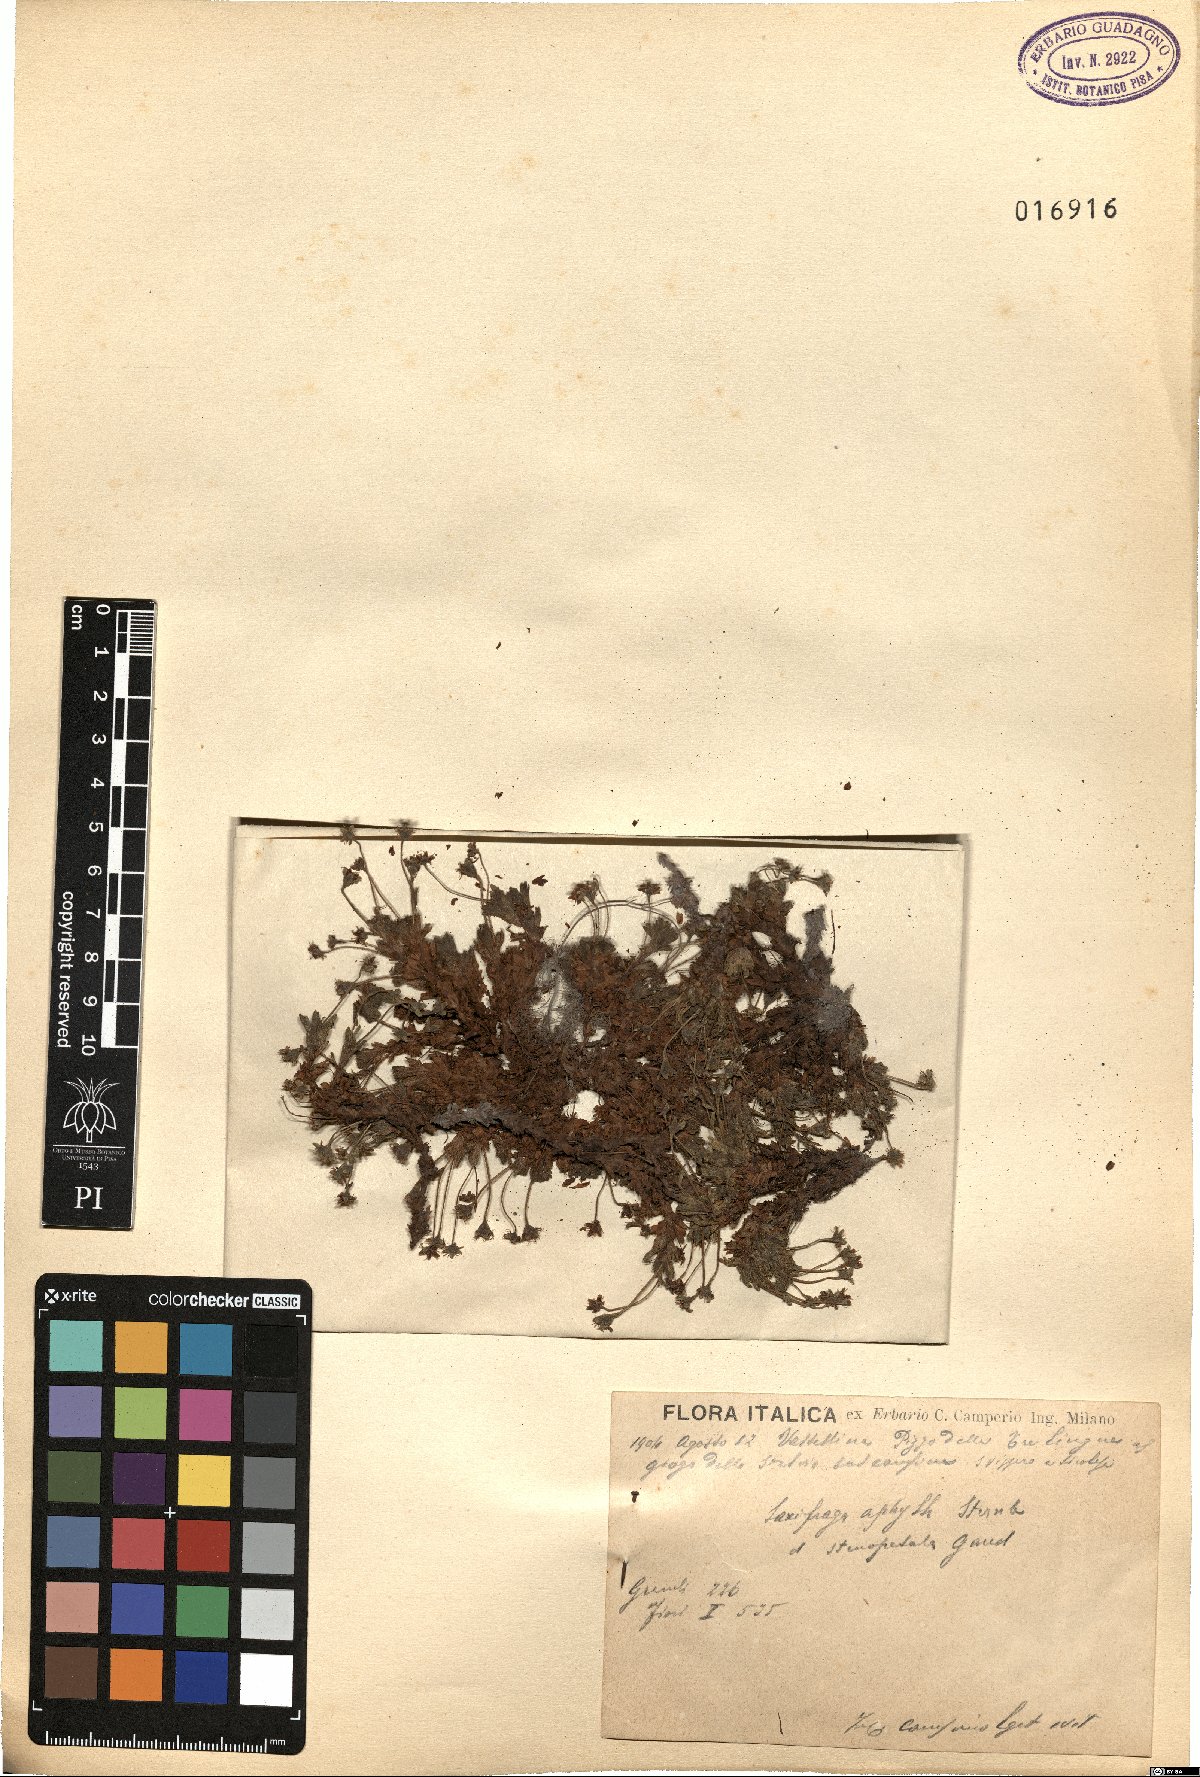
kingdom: Plantae
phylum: Tracheophyta
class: Magnoliopsida
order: Saxifragales
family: Saxifragaceae
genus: Saxifraga
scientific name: Saxifraga aphylla
